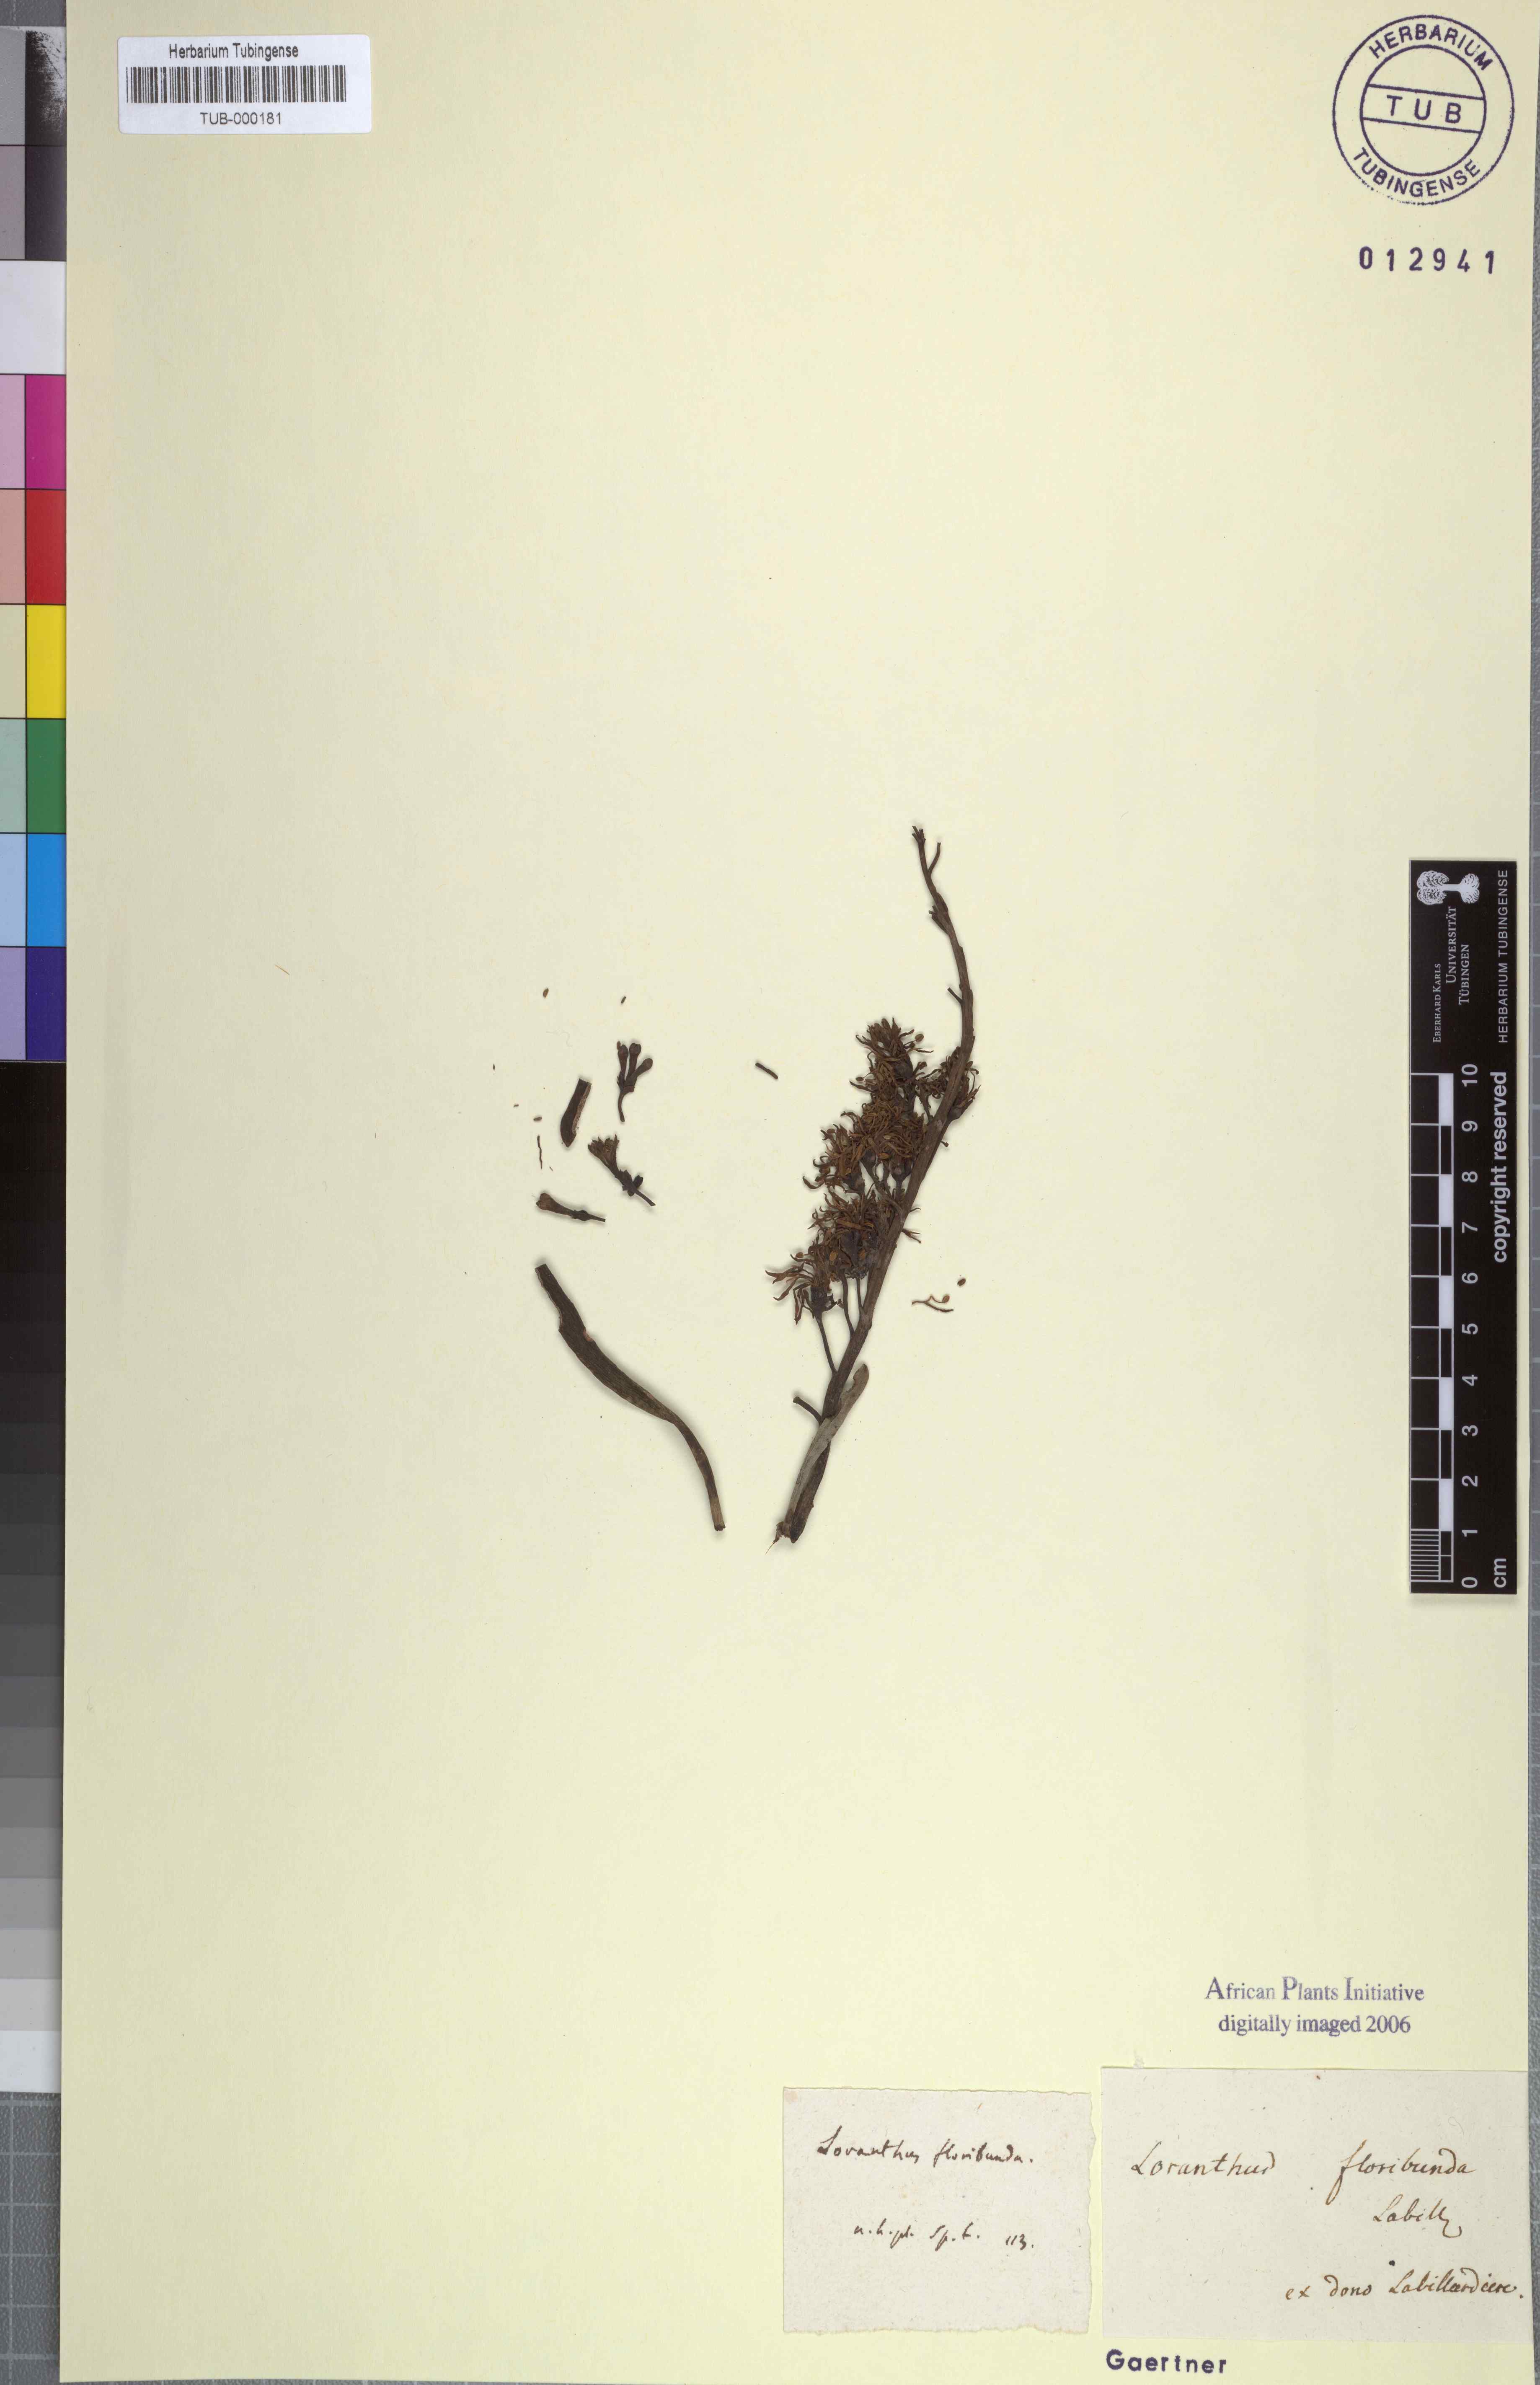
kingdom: Plantae
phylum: Tracheophyta
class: Magnoliopsida
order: Santalales
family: Loranthaceae
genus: Nuytsia
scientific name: Nuytsia floribunda
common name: Western australian christmastree
